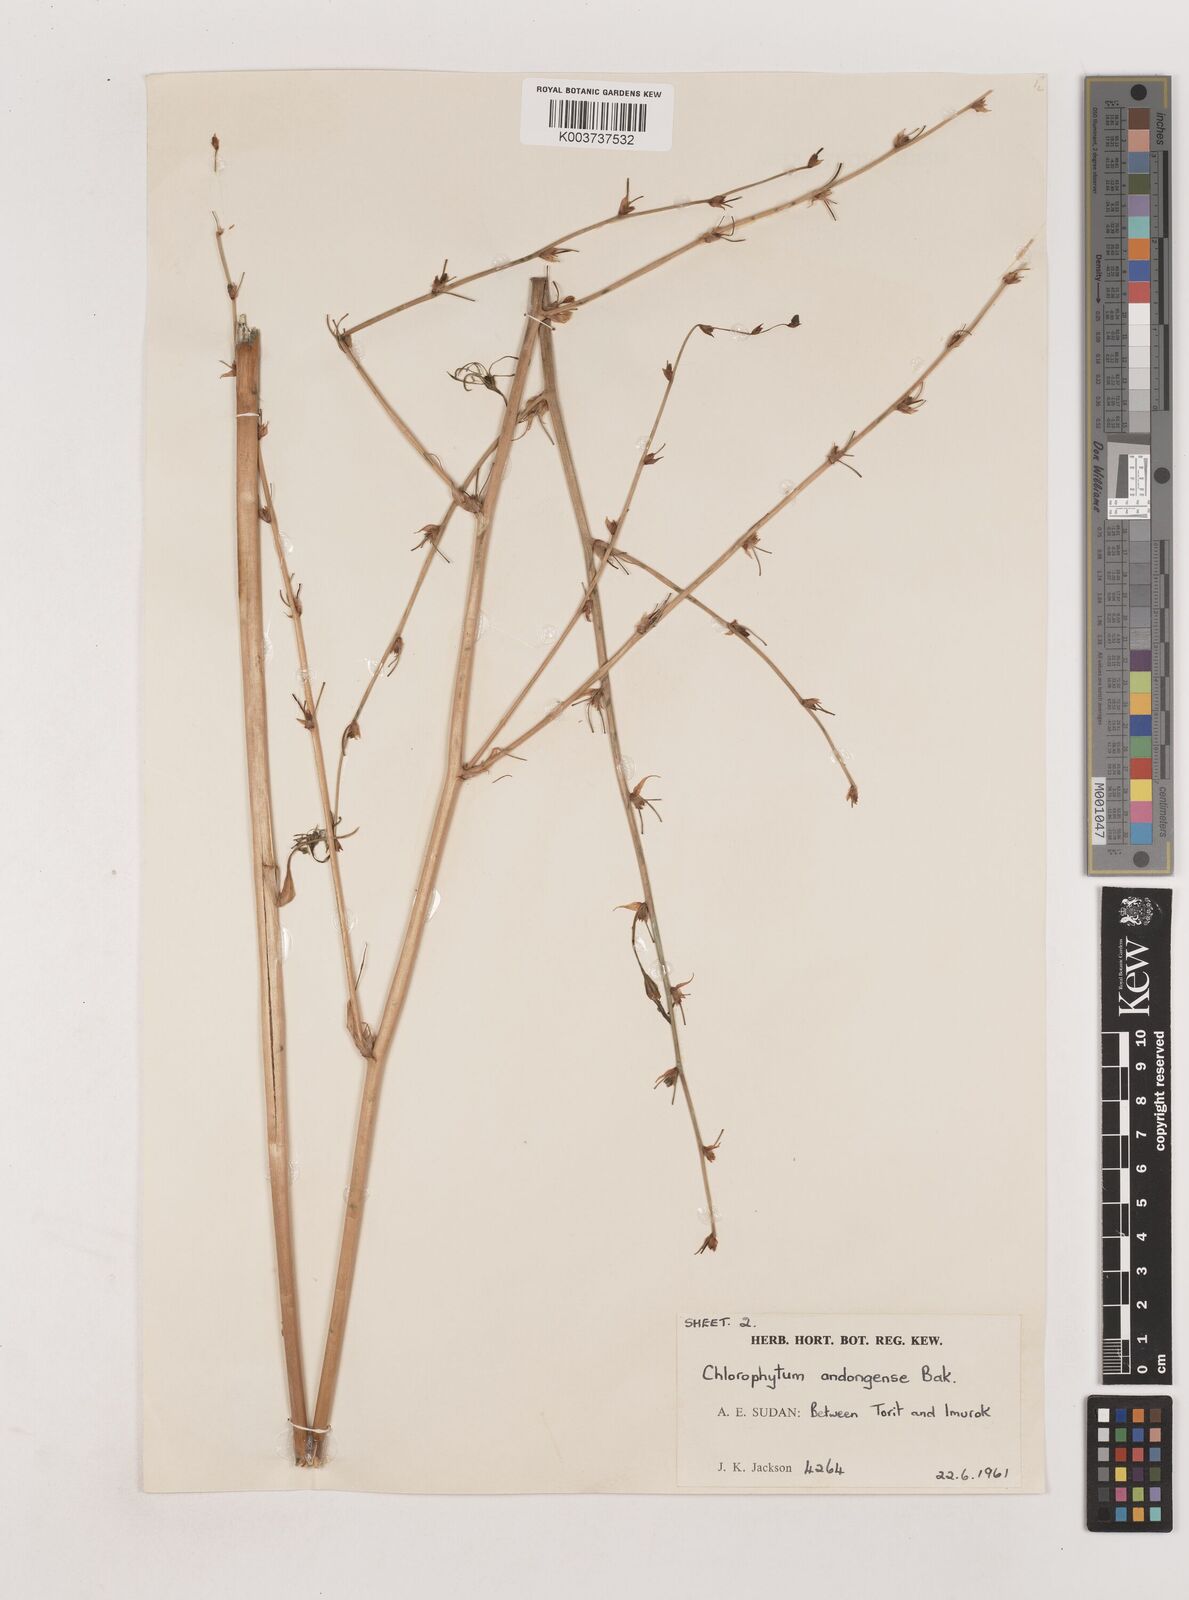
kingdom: Plantae
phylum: Tracheophyta
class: Liliopsida
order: Asparagales
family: Asparagaceae
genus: Chlorophytum
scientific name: Chlorophytum andongense
